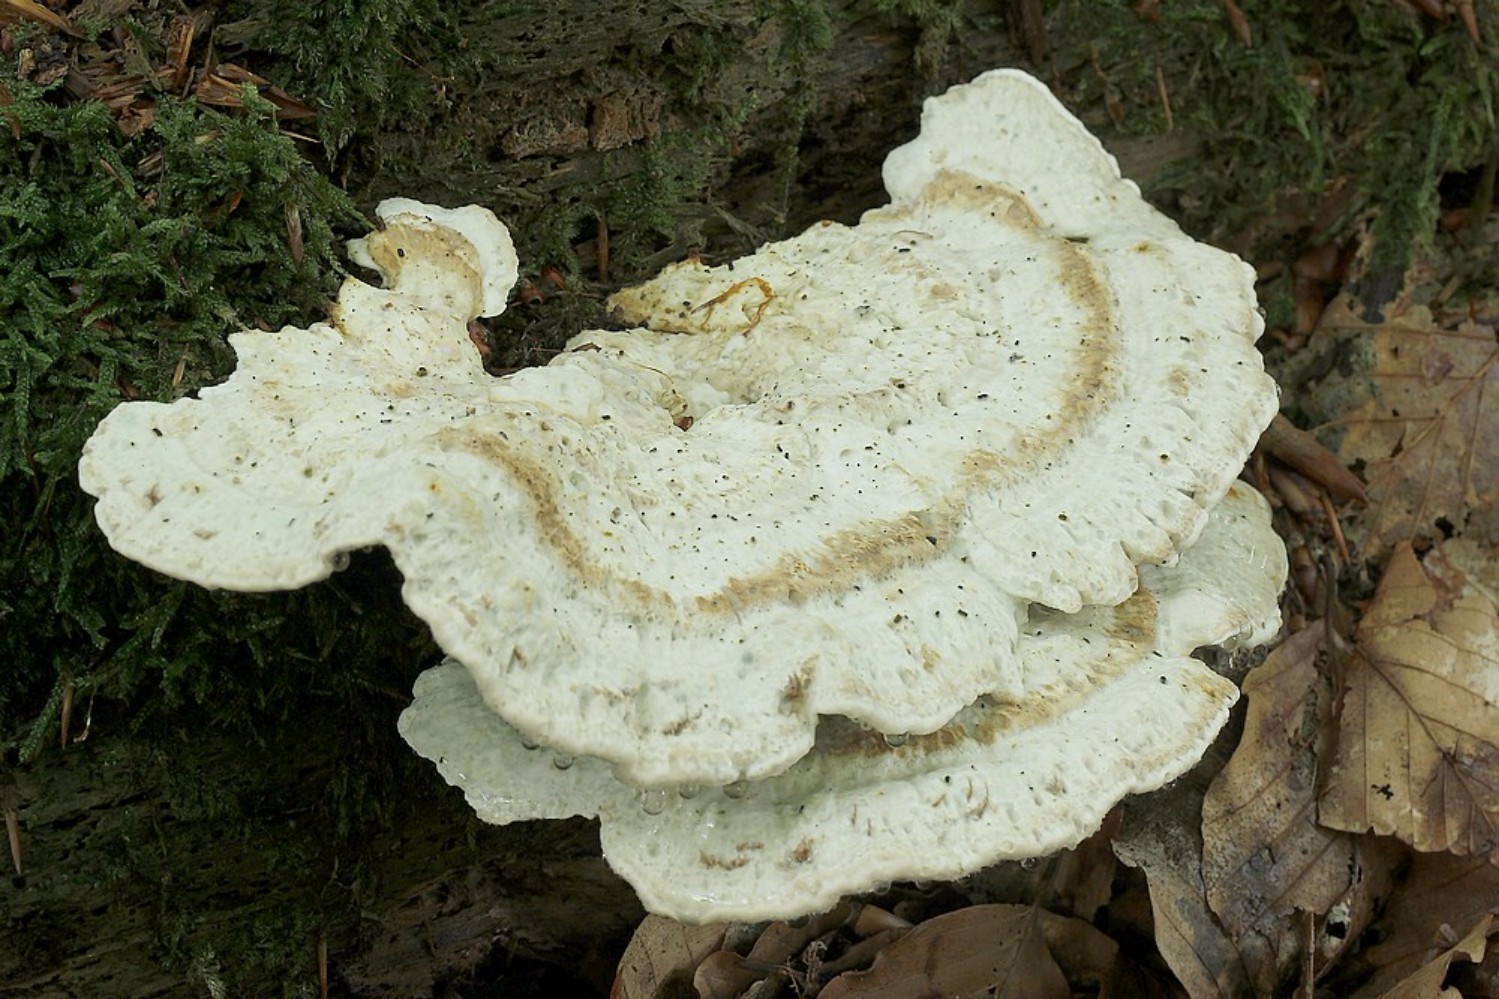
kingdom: Fungi
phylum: Basidiomycota
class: Agaricomycetes
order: Polyporales
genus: Calcipostia
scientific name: Calcipostia guttulata
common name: dråbe-kødporesvamp
